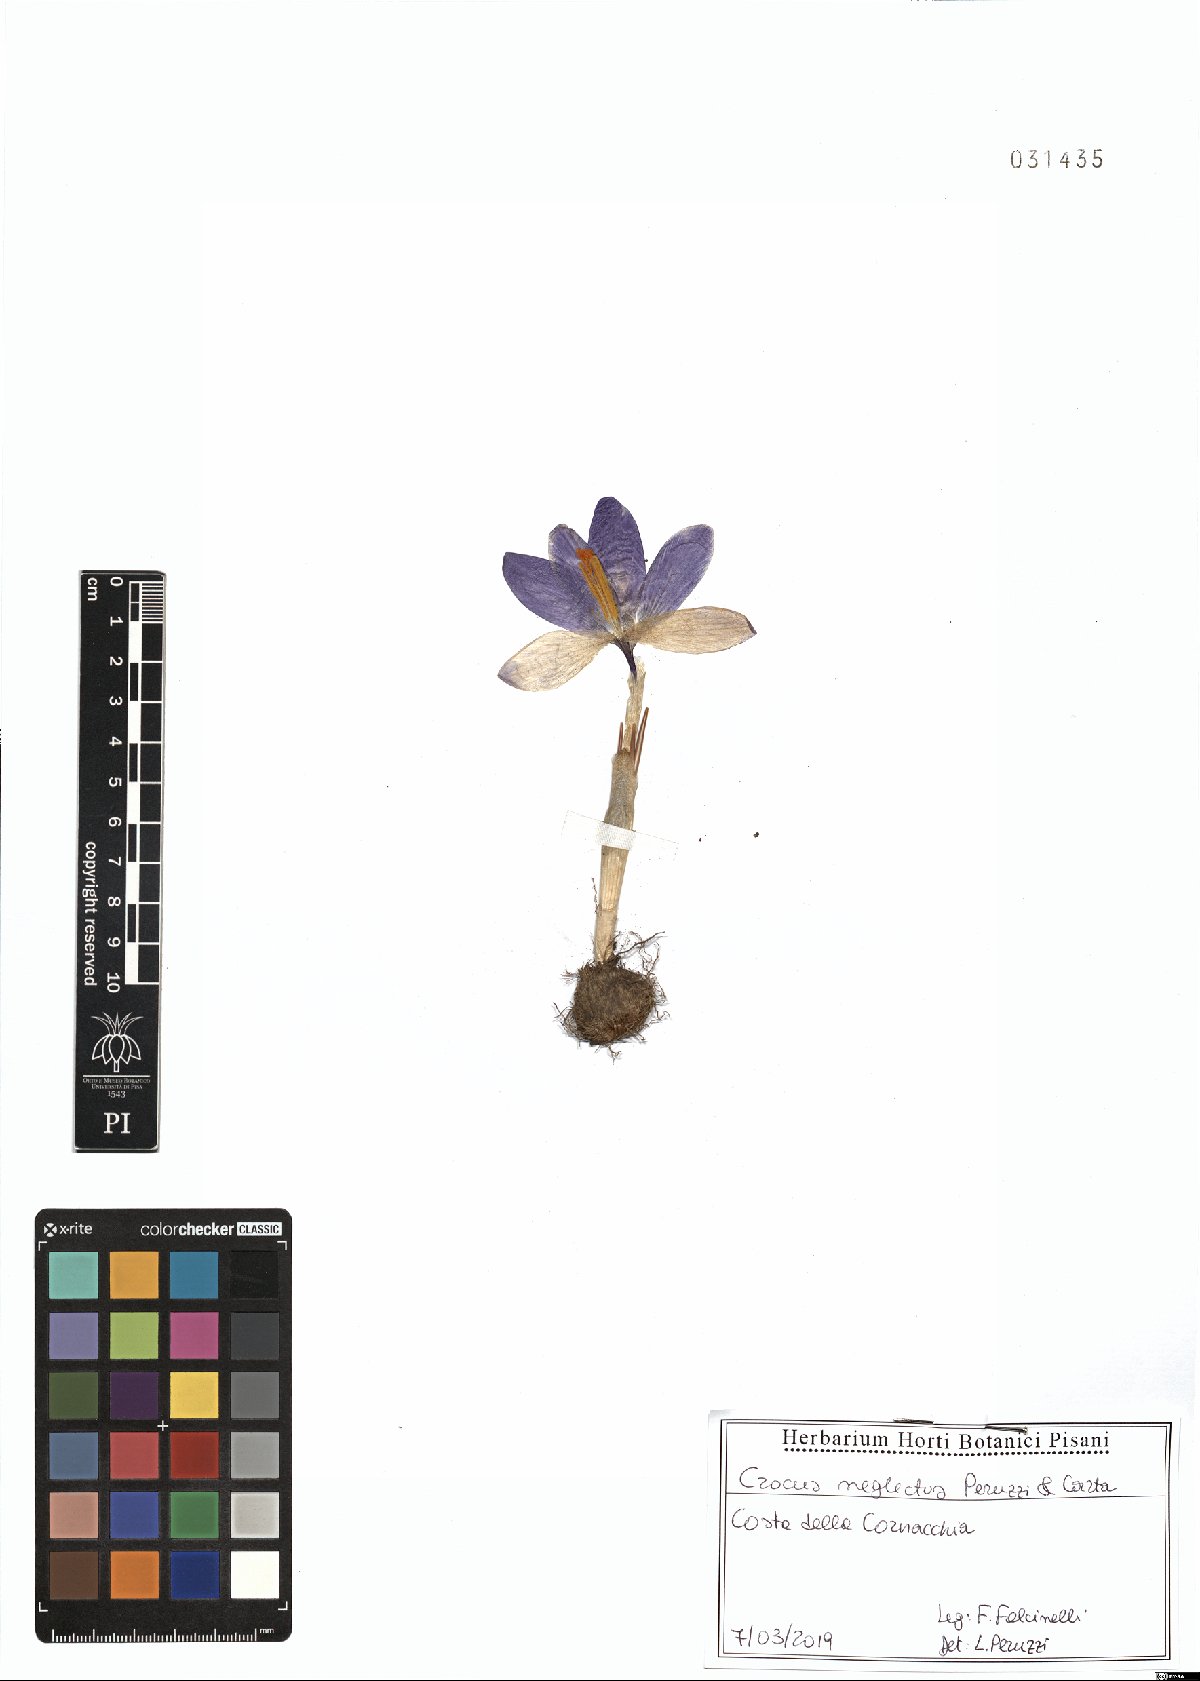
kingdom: Plantae
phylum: Tracheophyta
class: Liliopsida
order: Asparagales
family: Iridaceae
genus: Crocus
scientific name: Crocus neglectus
